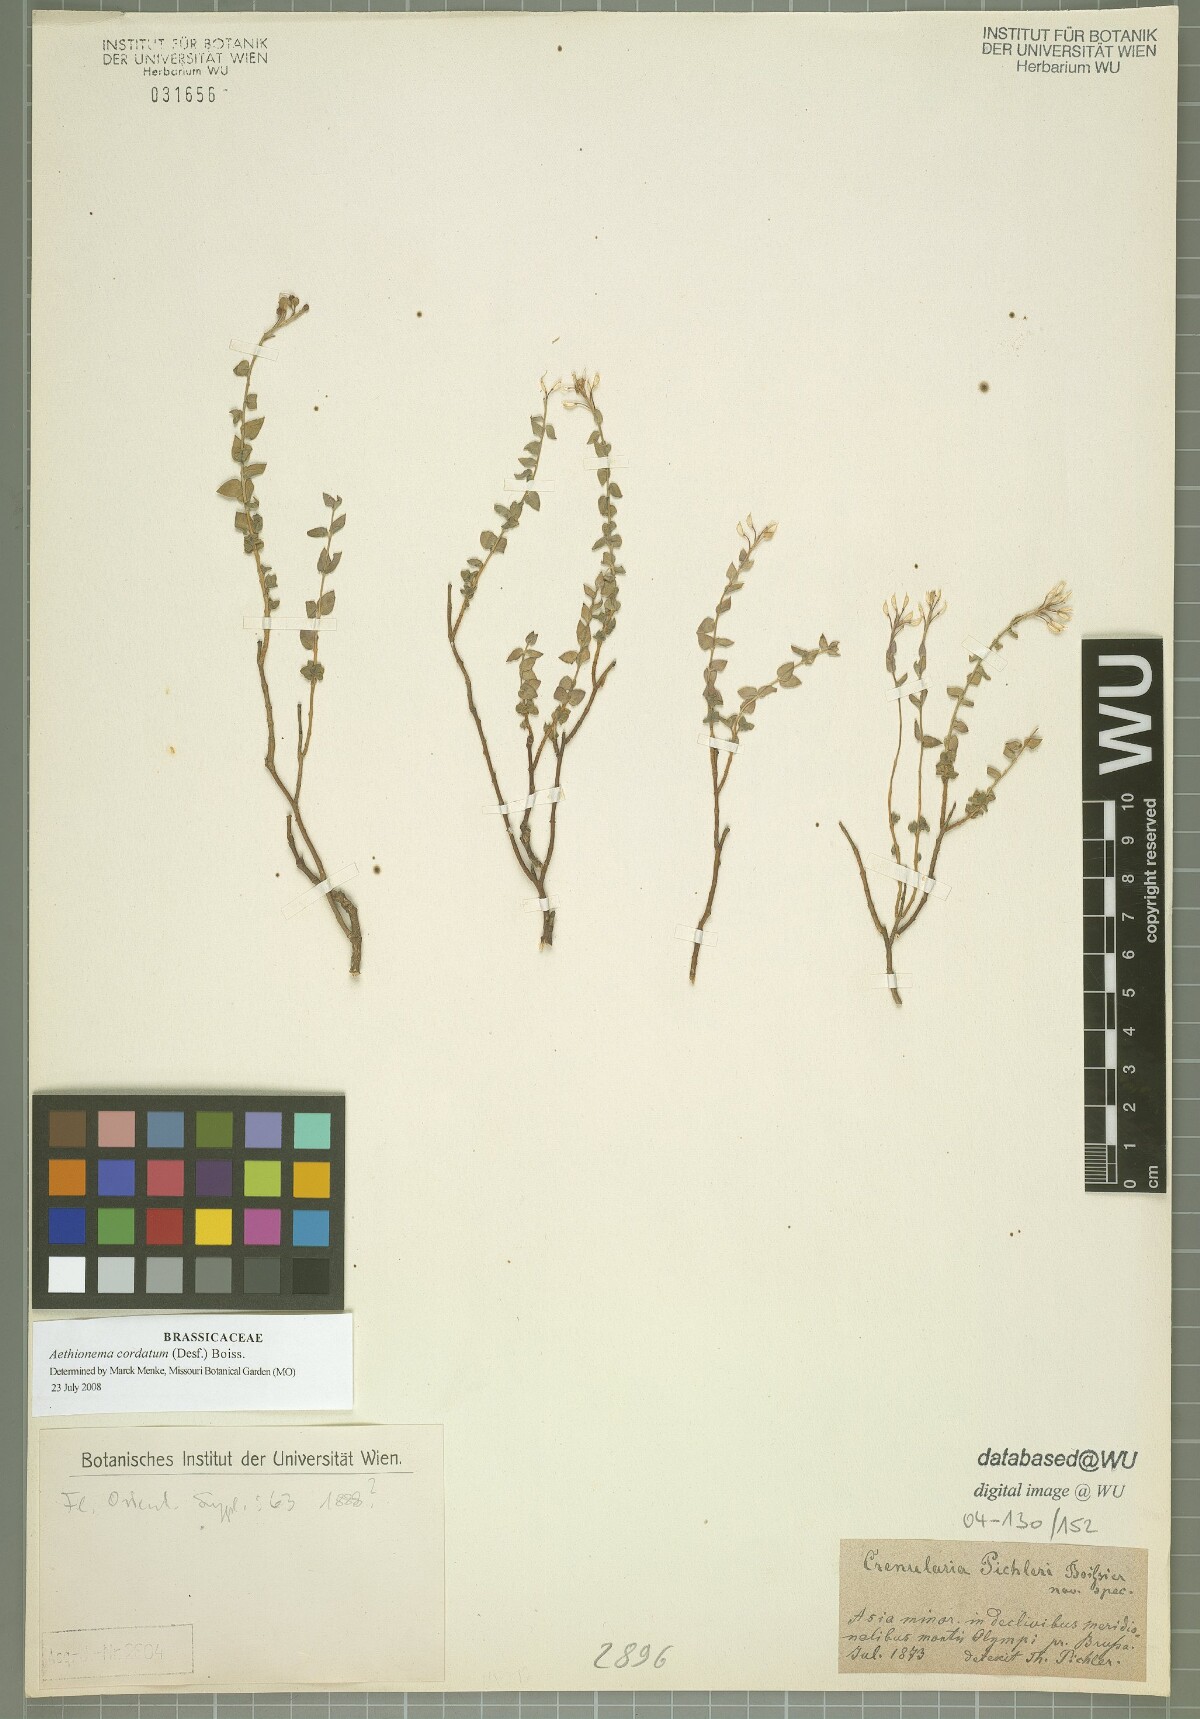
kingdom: Plantae
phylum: Tracheophyta
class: Magnoliopsida
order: Brassicales
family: Brassicaceae
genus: Aethionema
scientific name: Aethionema cordatum
